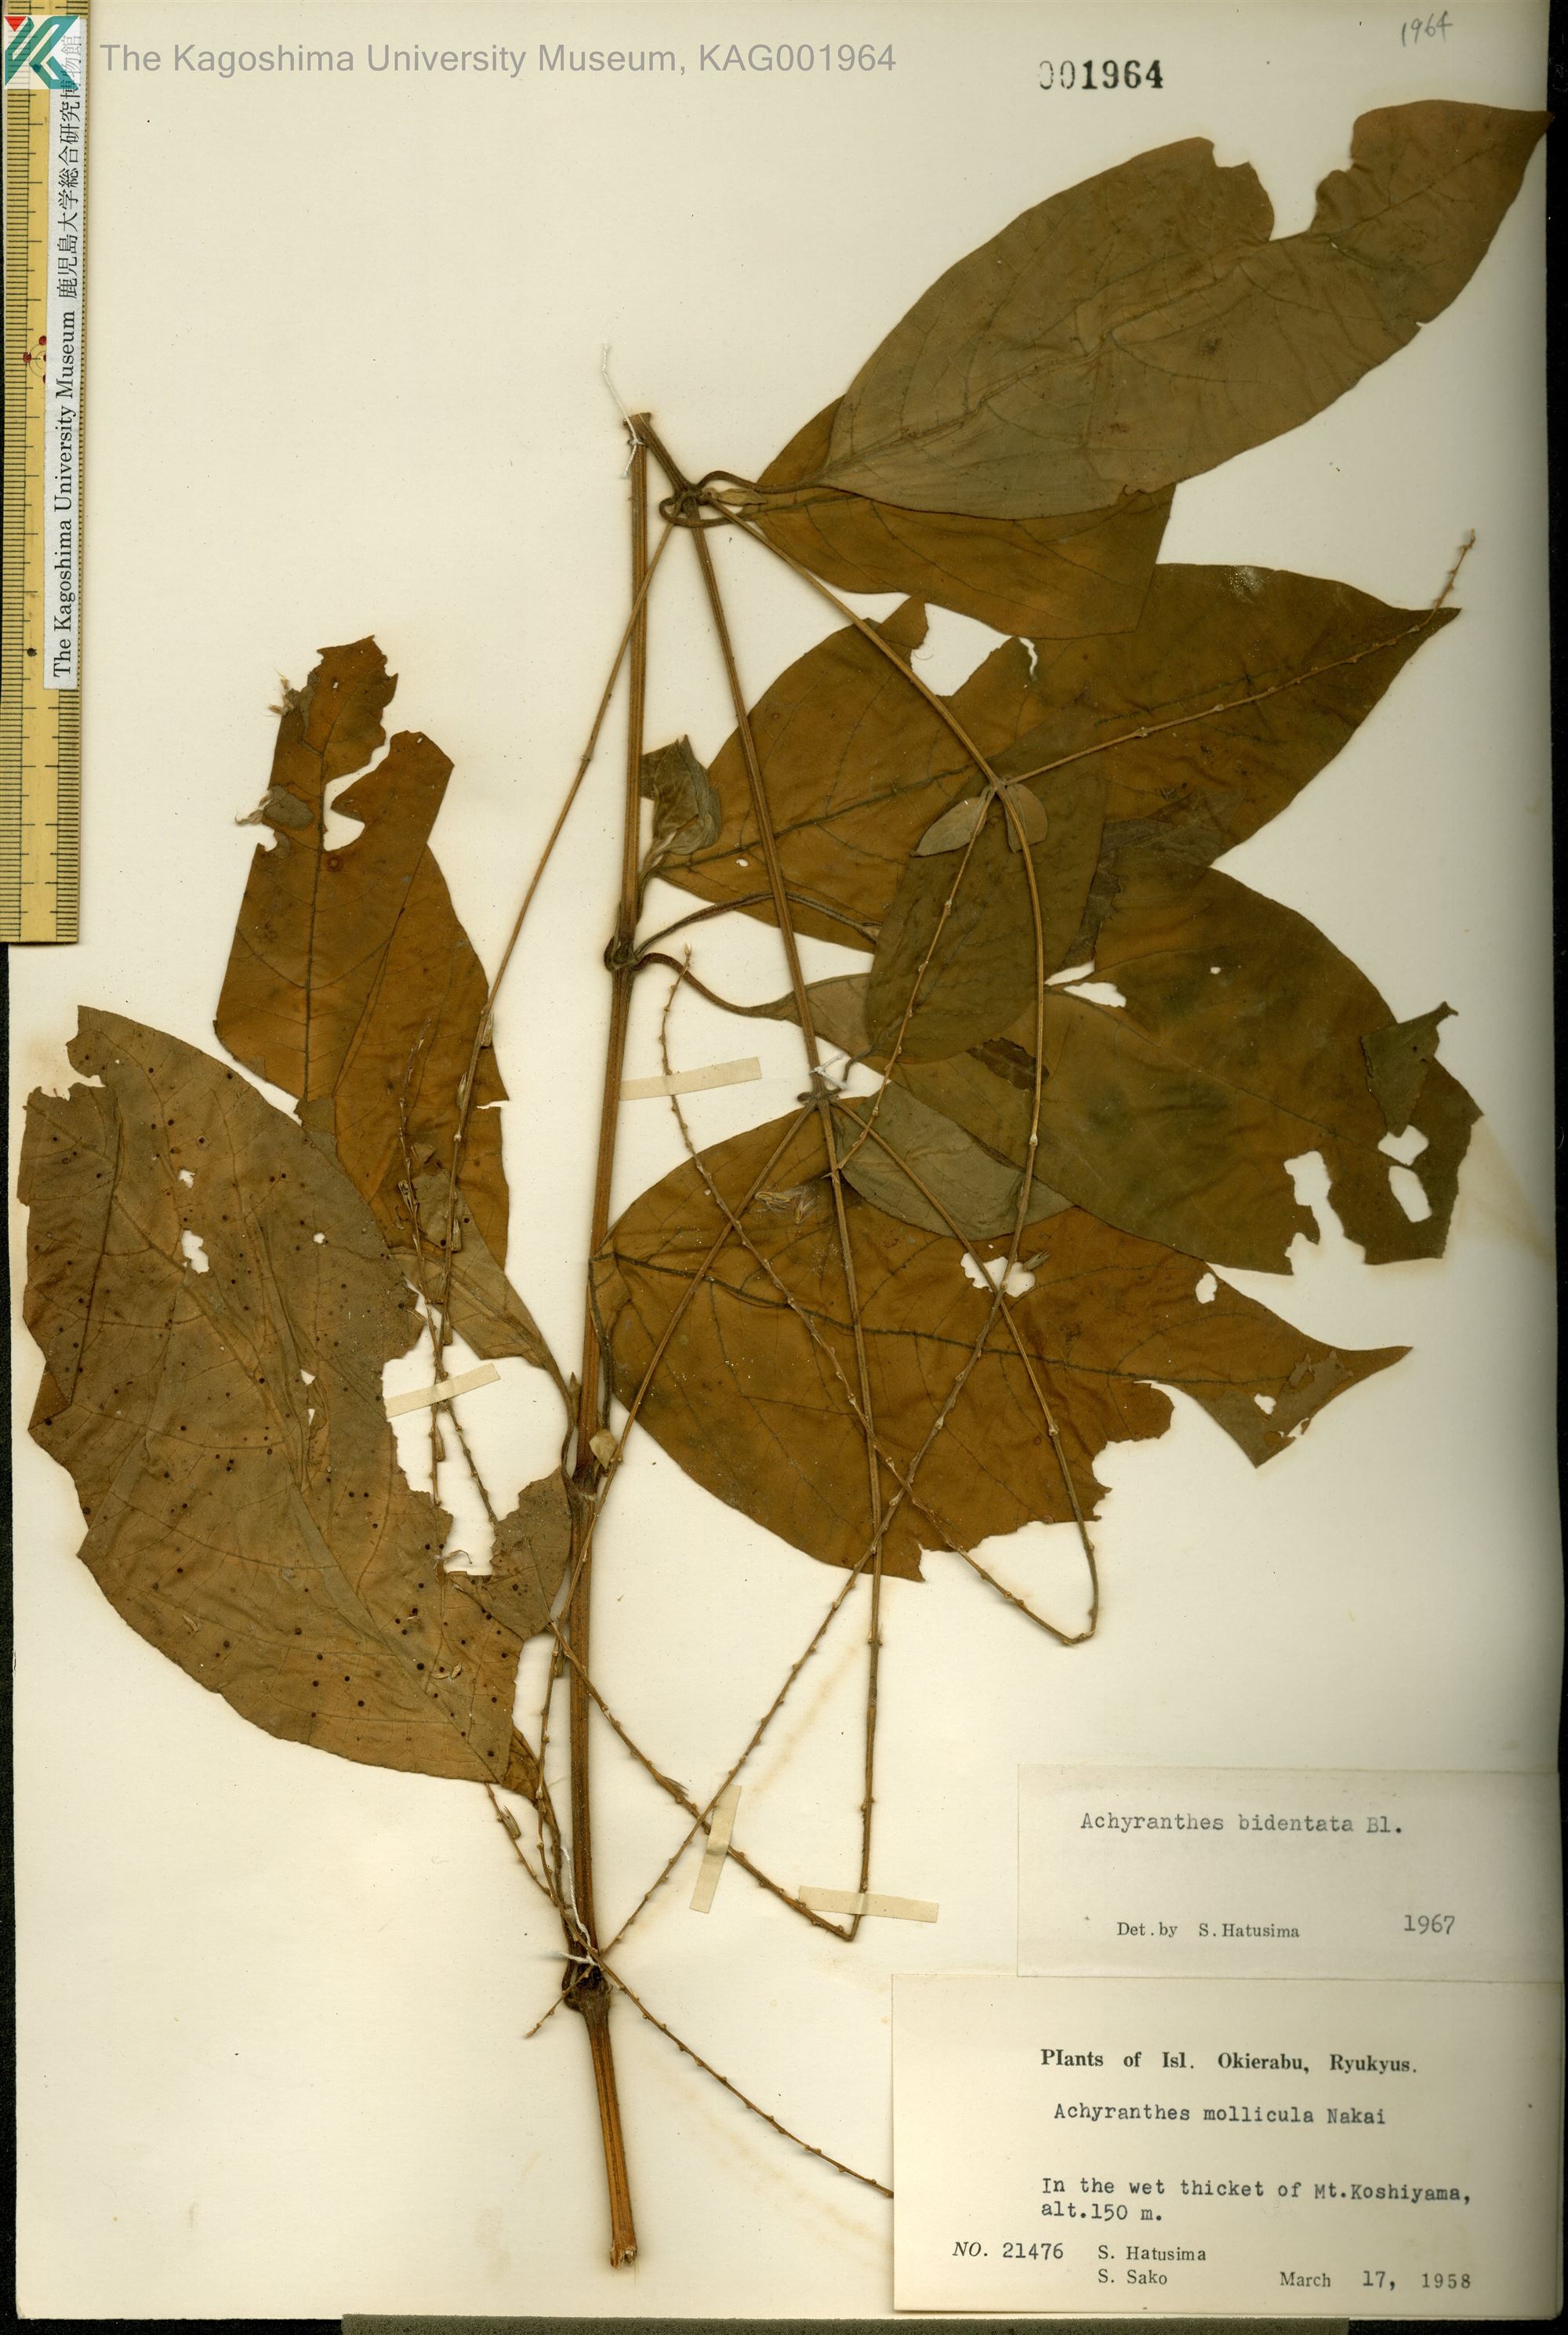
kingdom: Plantae
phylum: Tracheophyta
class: Magnoliopsida
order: Caryophyllales
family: Amaranthaceae
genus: Achyranthes
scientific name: Achyranthes bidentata
